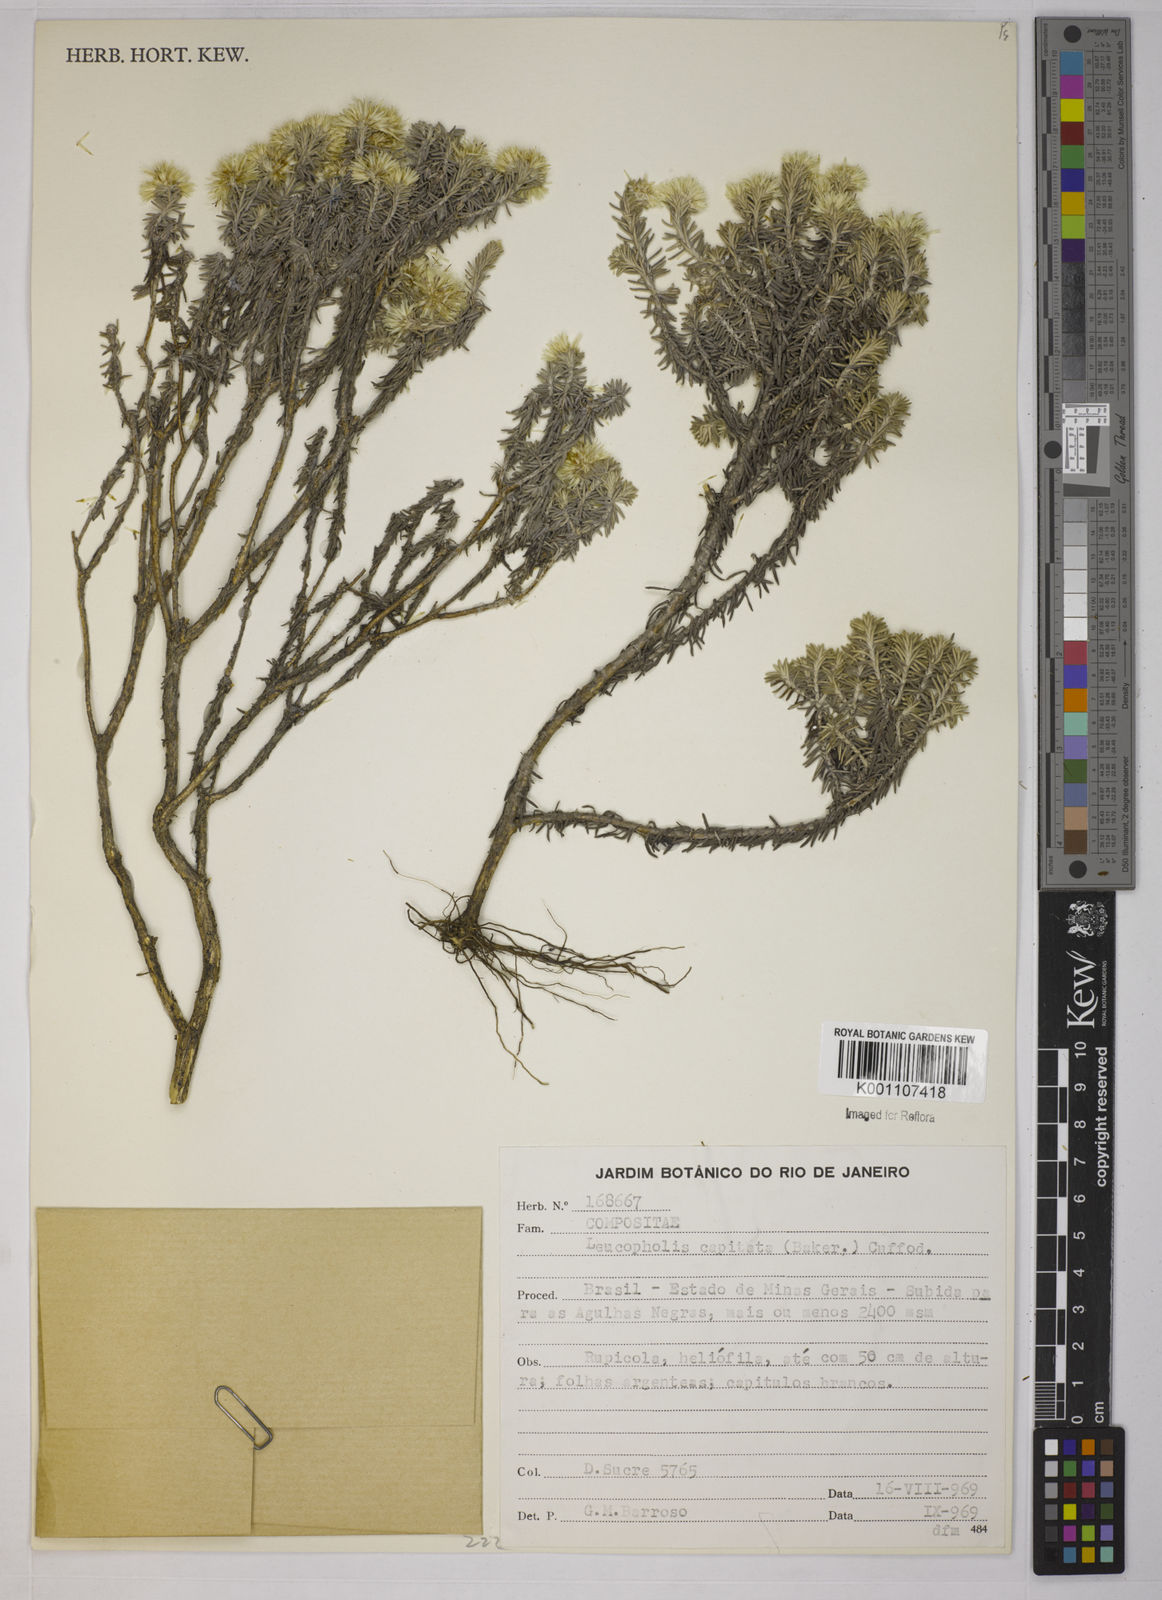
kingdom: Plantae
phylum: Tracheophyta
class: Magnoliopsida
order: Asterales
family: Asteraceae
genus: Chionolaena
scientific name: Chionolaena capitata
